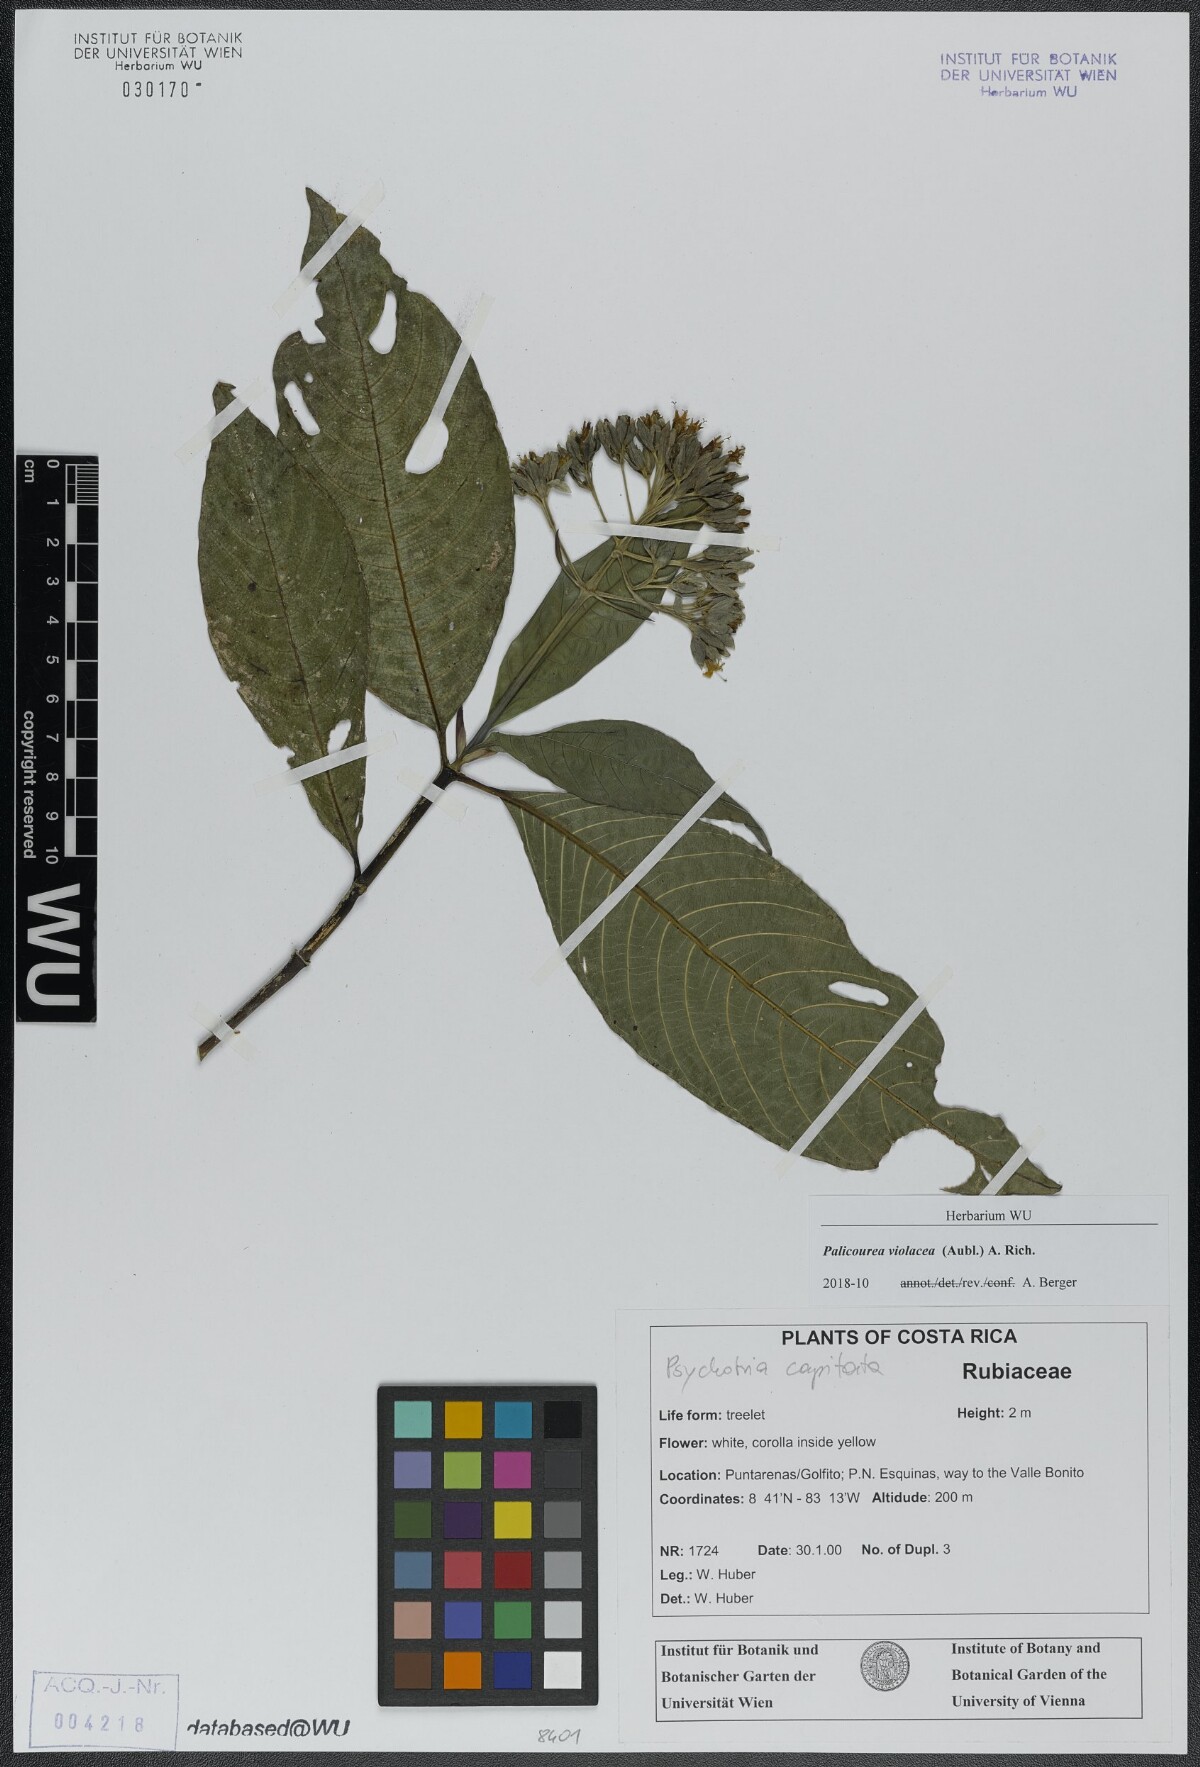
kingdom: Plantae
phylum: Tracheophyta
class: Magnoliopsida
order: Gentianales
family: Rubiaceae
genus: Palicourea
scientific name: Palicourea violacea
